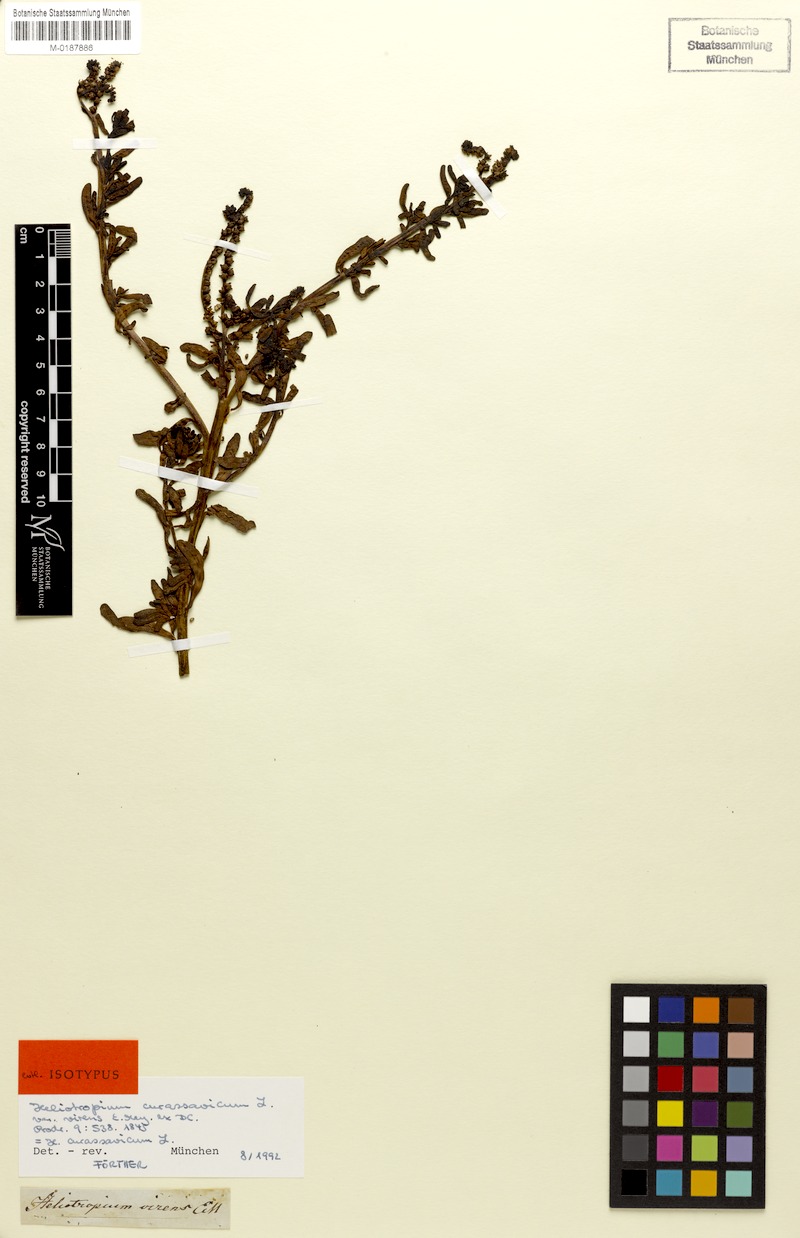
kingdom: Plantae
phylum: Tracheophyta
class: Magnoliopsida
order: Boraginales
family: Heliotropiaceae
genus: Heliotropium
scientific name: Heliotropium curassavicum
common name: Seaside heliotrope
